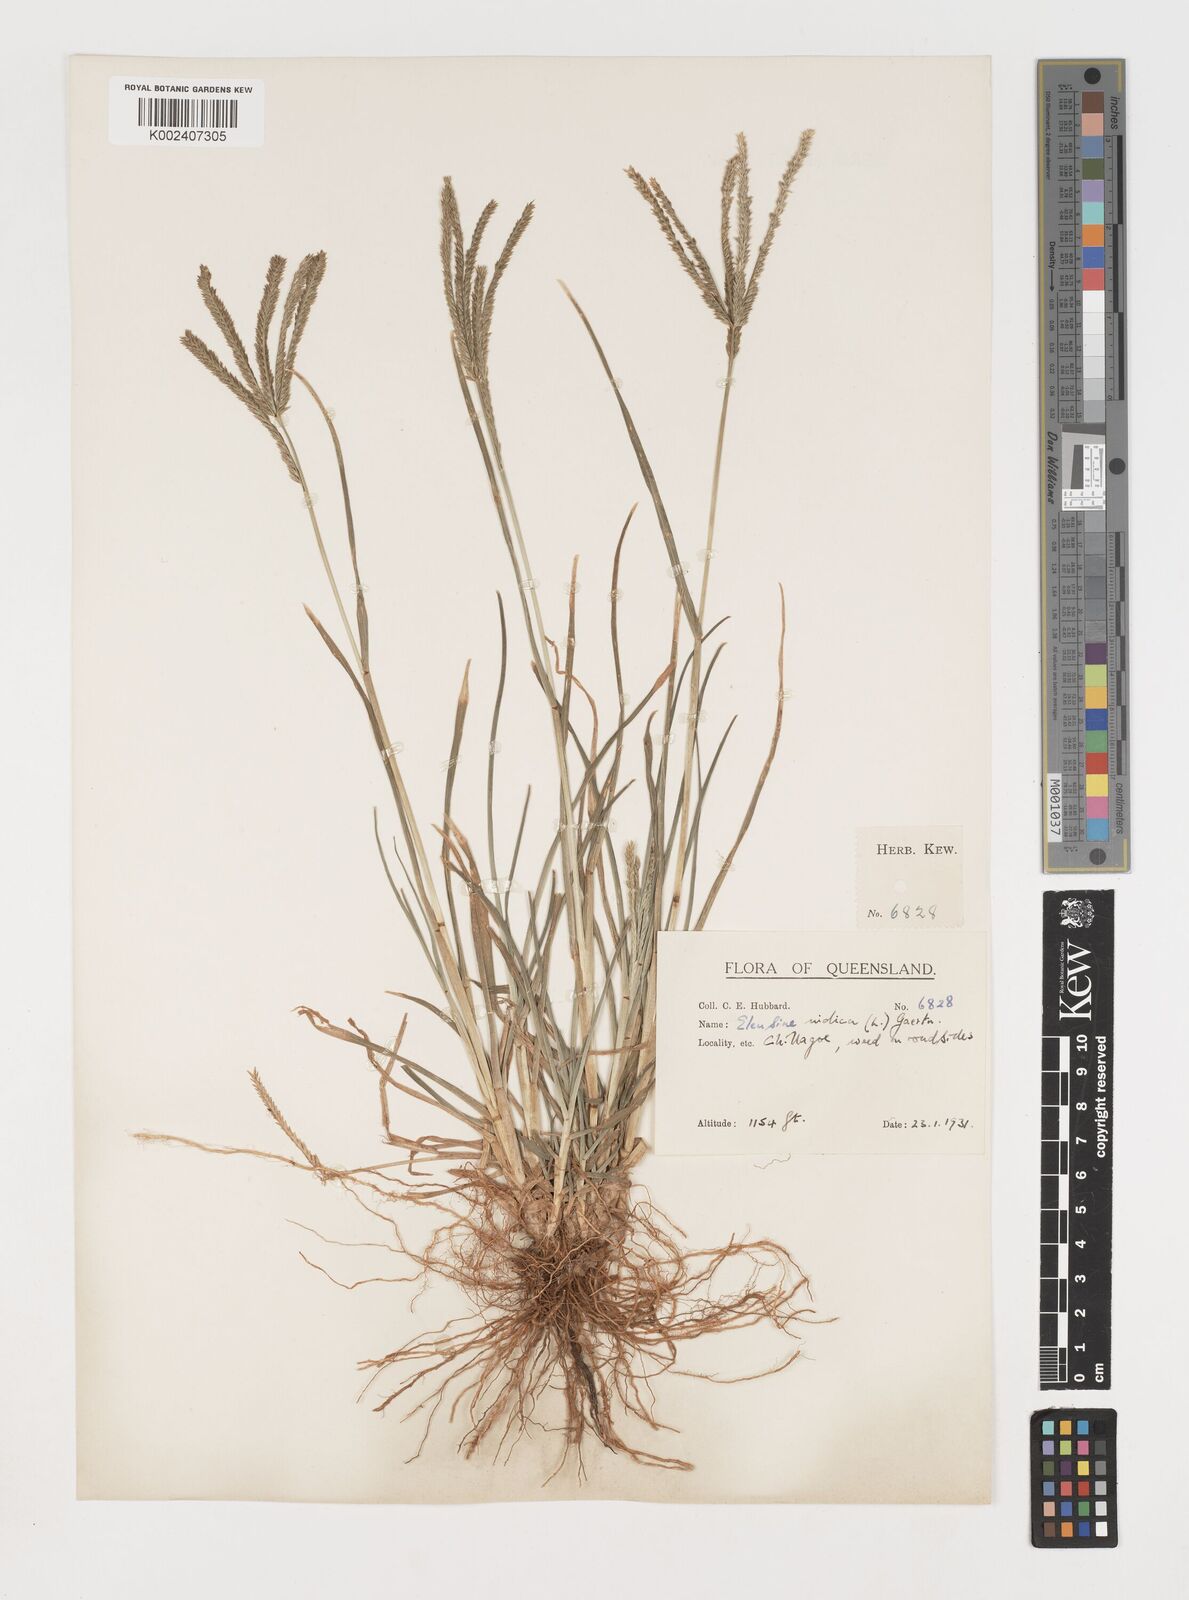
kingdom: Plantae
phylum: Tracheophyta
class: Liliopsida
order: Poales
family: Poaceae
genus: Eleusine
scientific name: Eleusine indica
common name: Yard-grass
